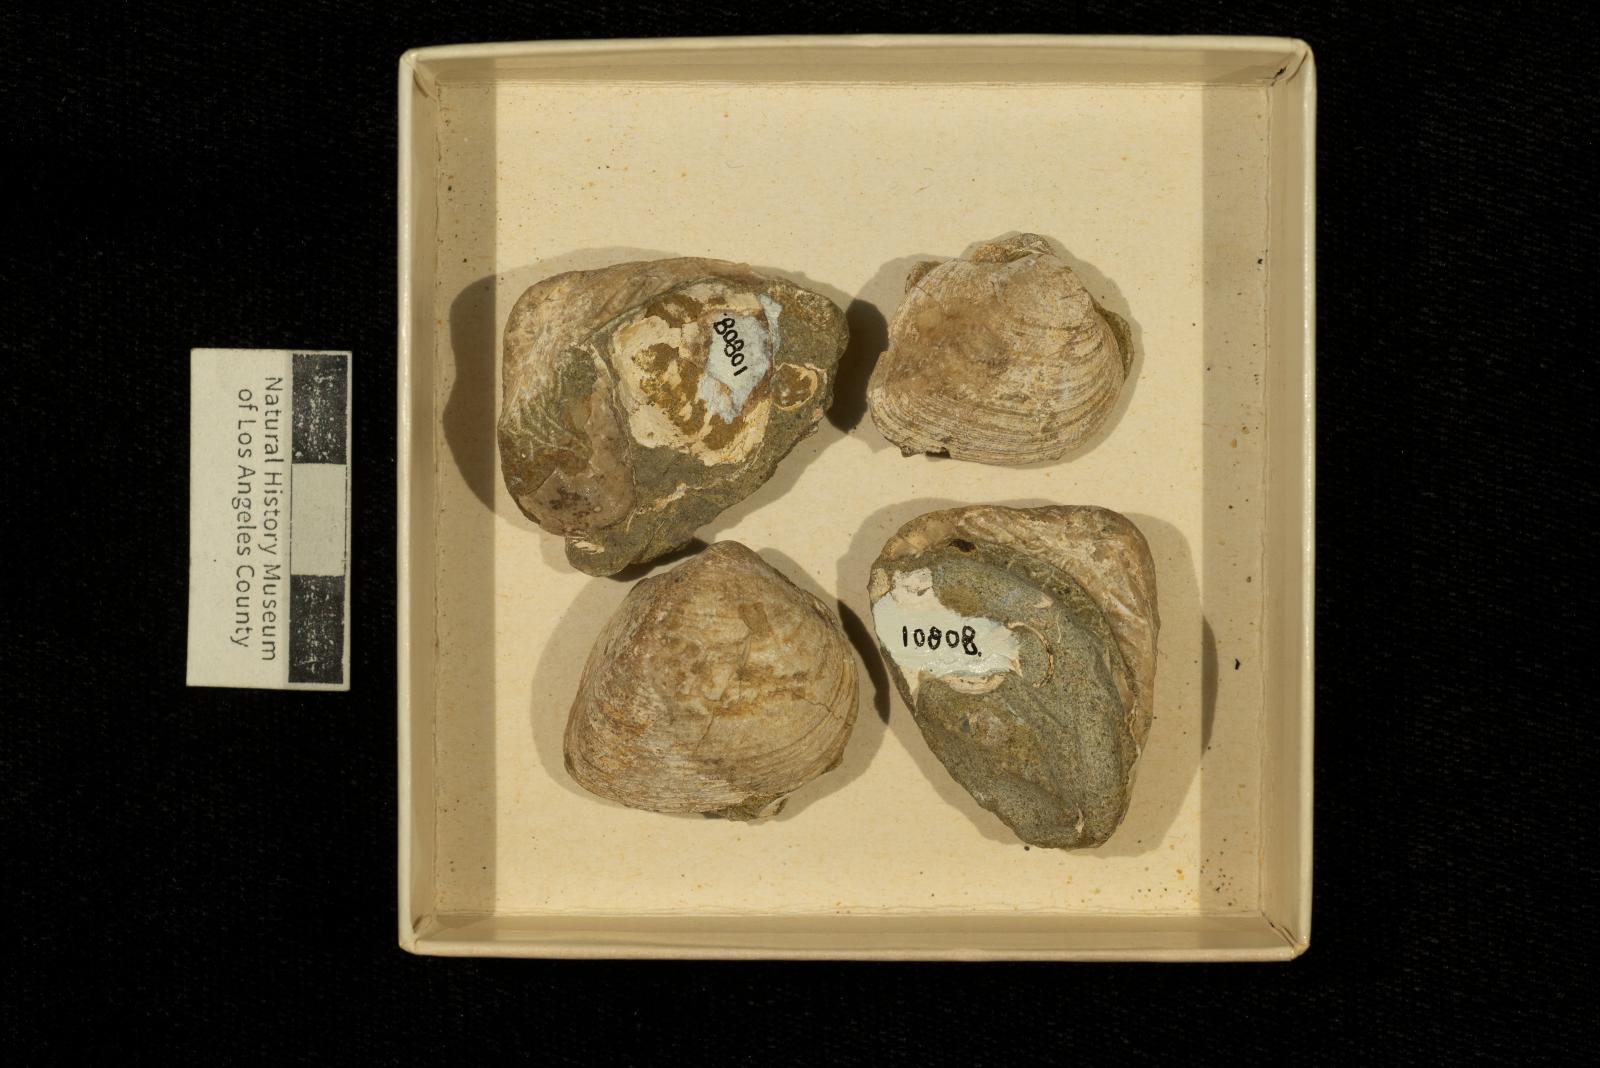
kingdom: Animalia
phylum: Mollusca
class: Bivalvia
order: Arcida
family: Cucullaeidae
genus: Idonearca
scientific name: Idonearca Arca gravida
